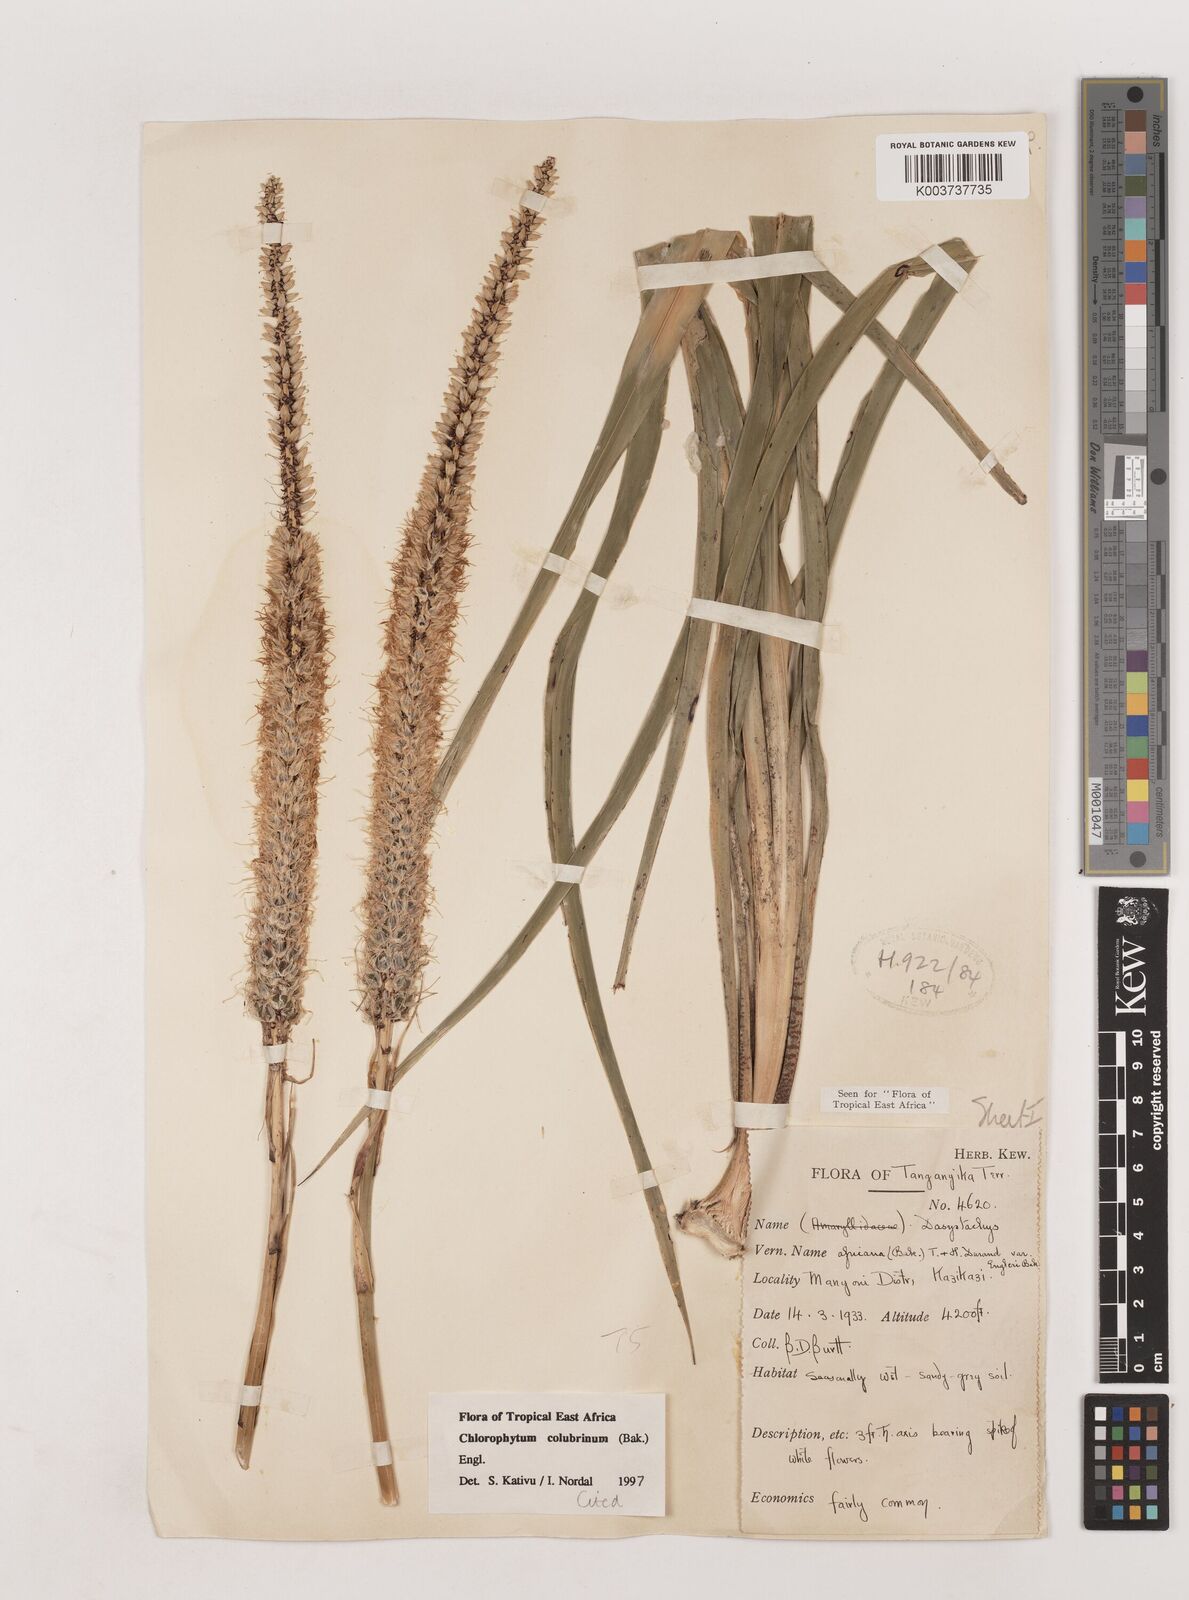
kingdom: Plantae
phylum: Tracheophyta
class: Liliopsida
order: Asparagales
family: Asparagaceae
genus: Chlorophytum
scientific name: Chlorophytum colubrinum
